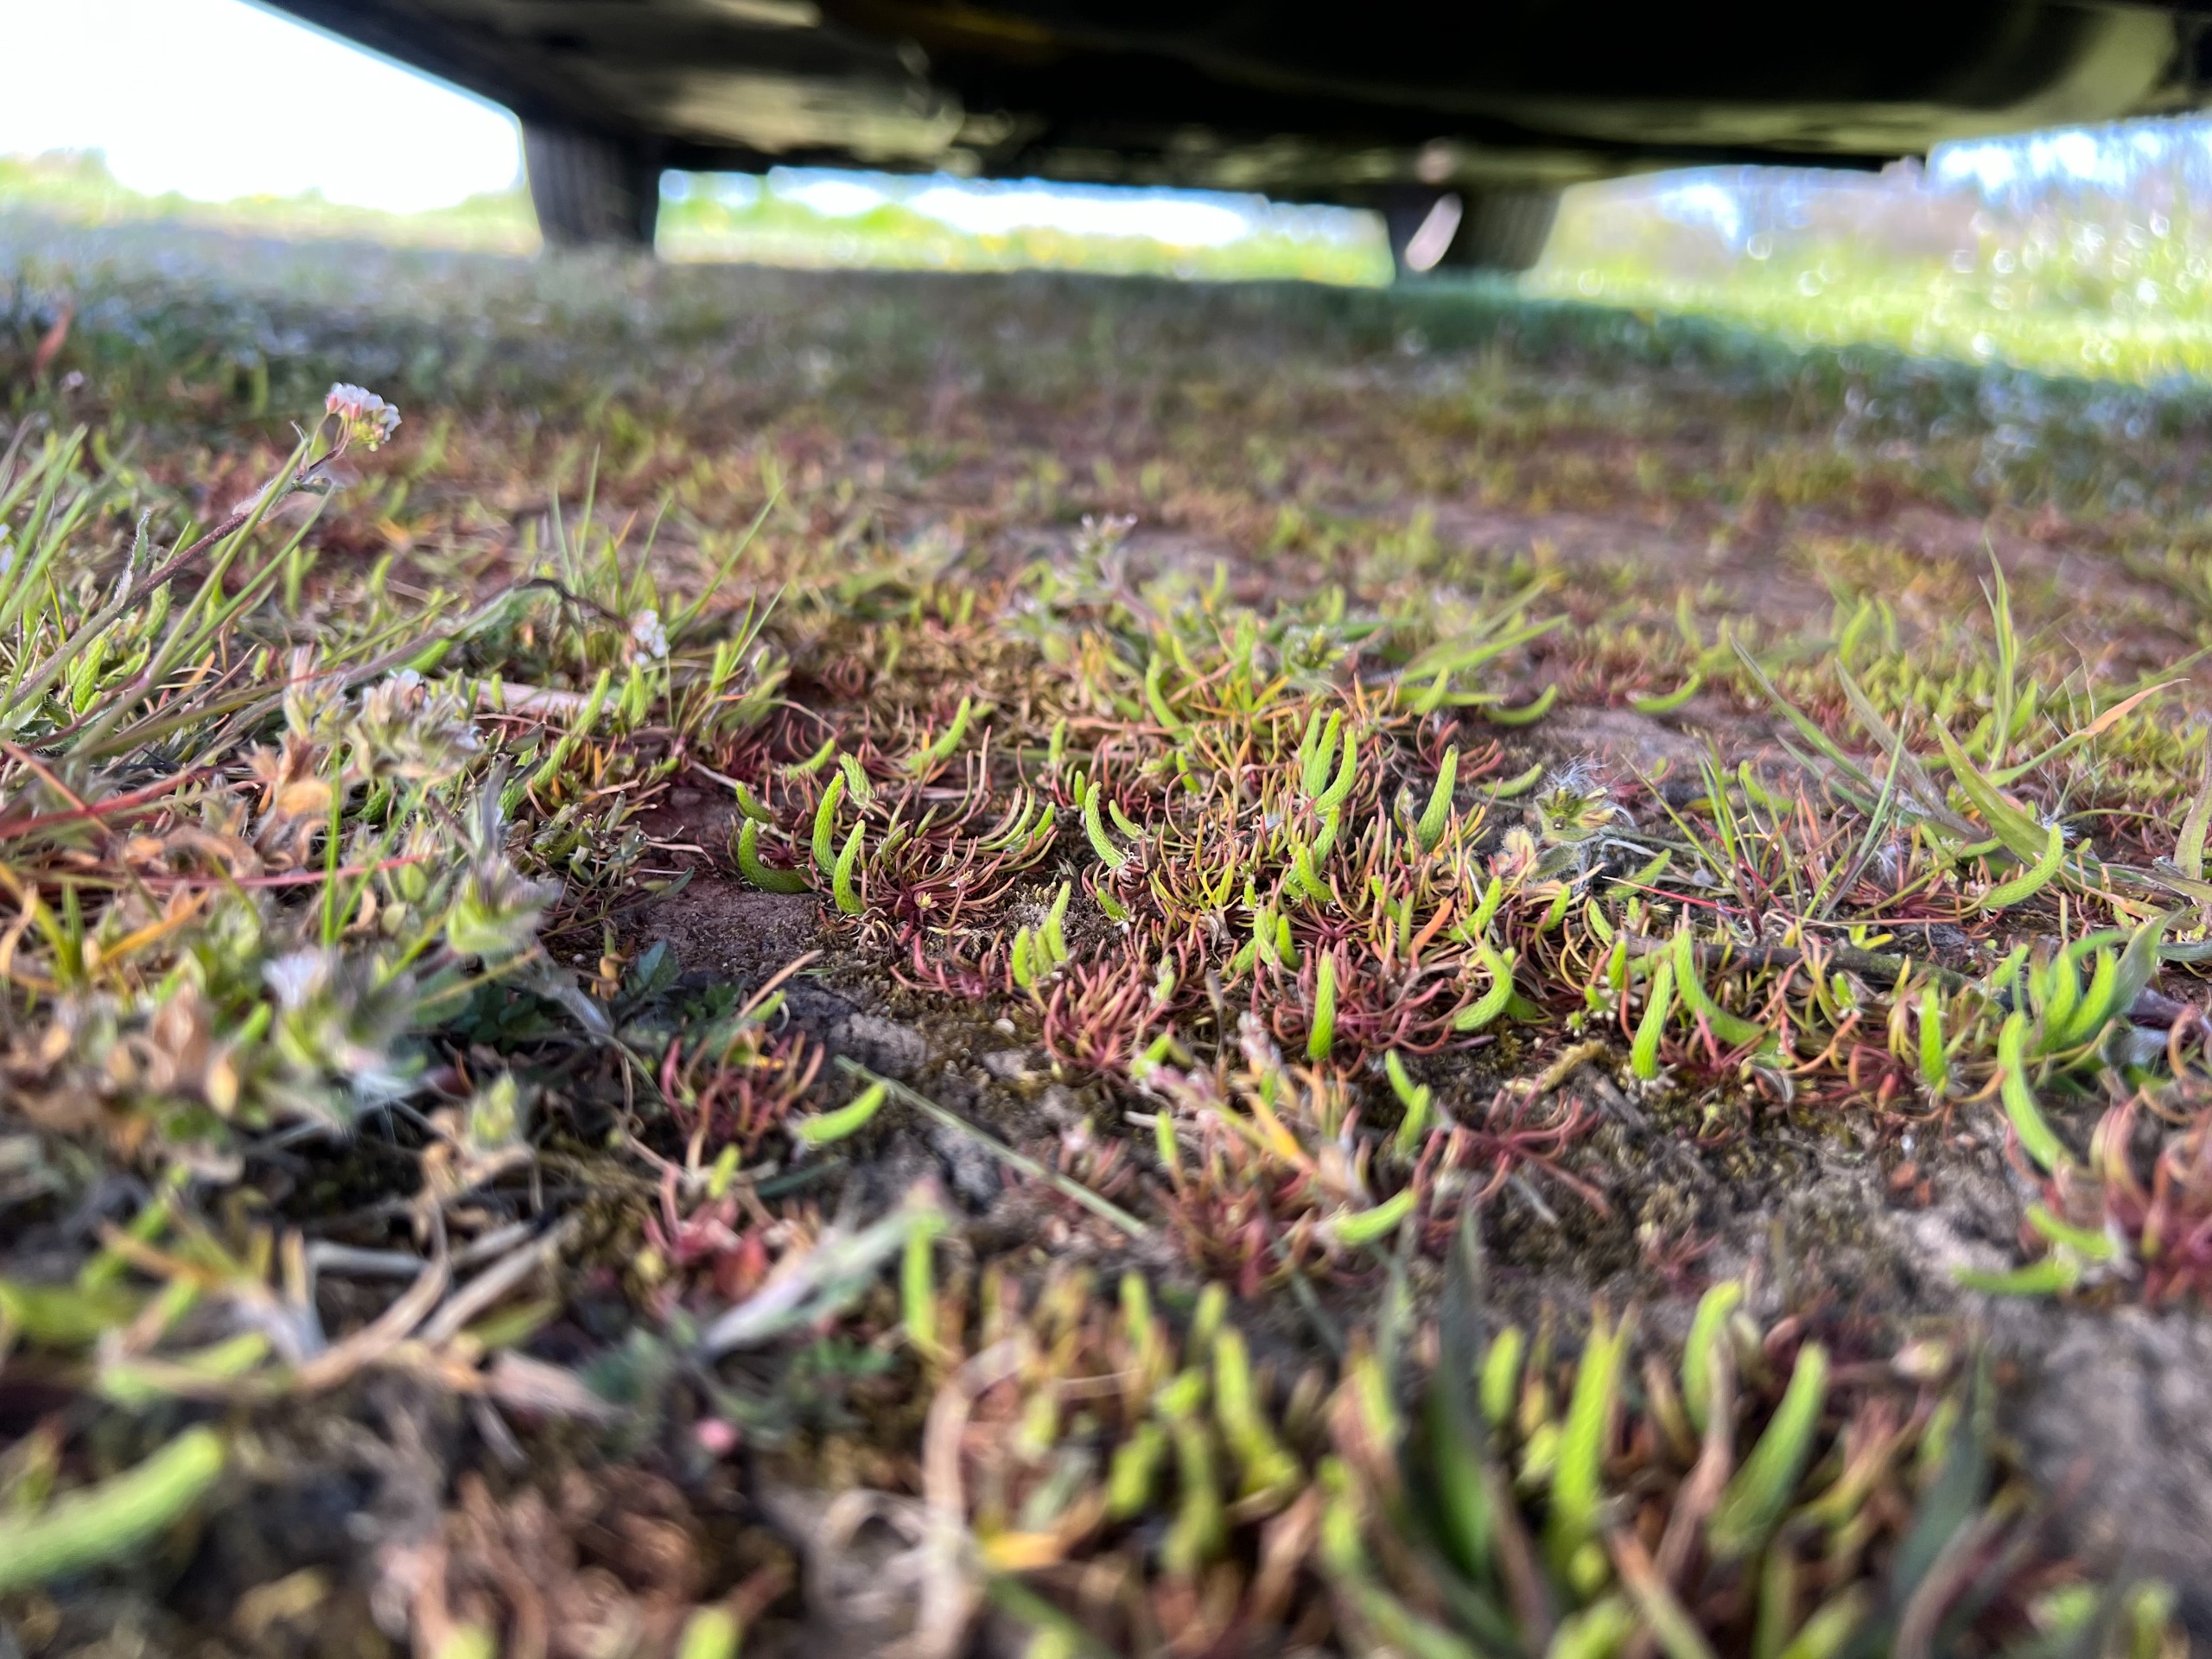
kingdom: Plantae
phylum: Tracheophyta
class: Magnoliopsida
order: Ranunculales
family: Ranunculaceae
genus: Myosurus
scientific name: Myosurus minimus
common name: Musehale
